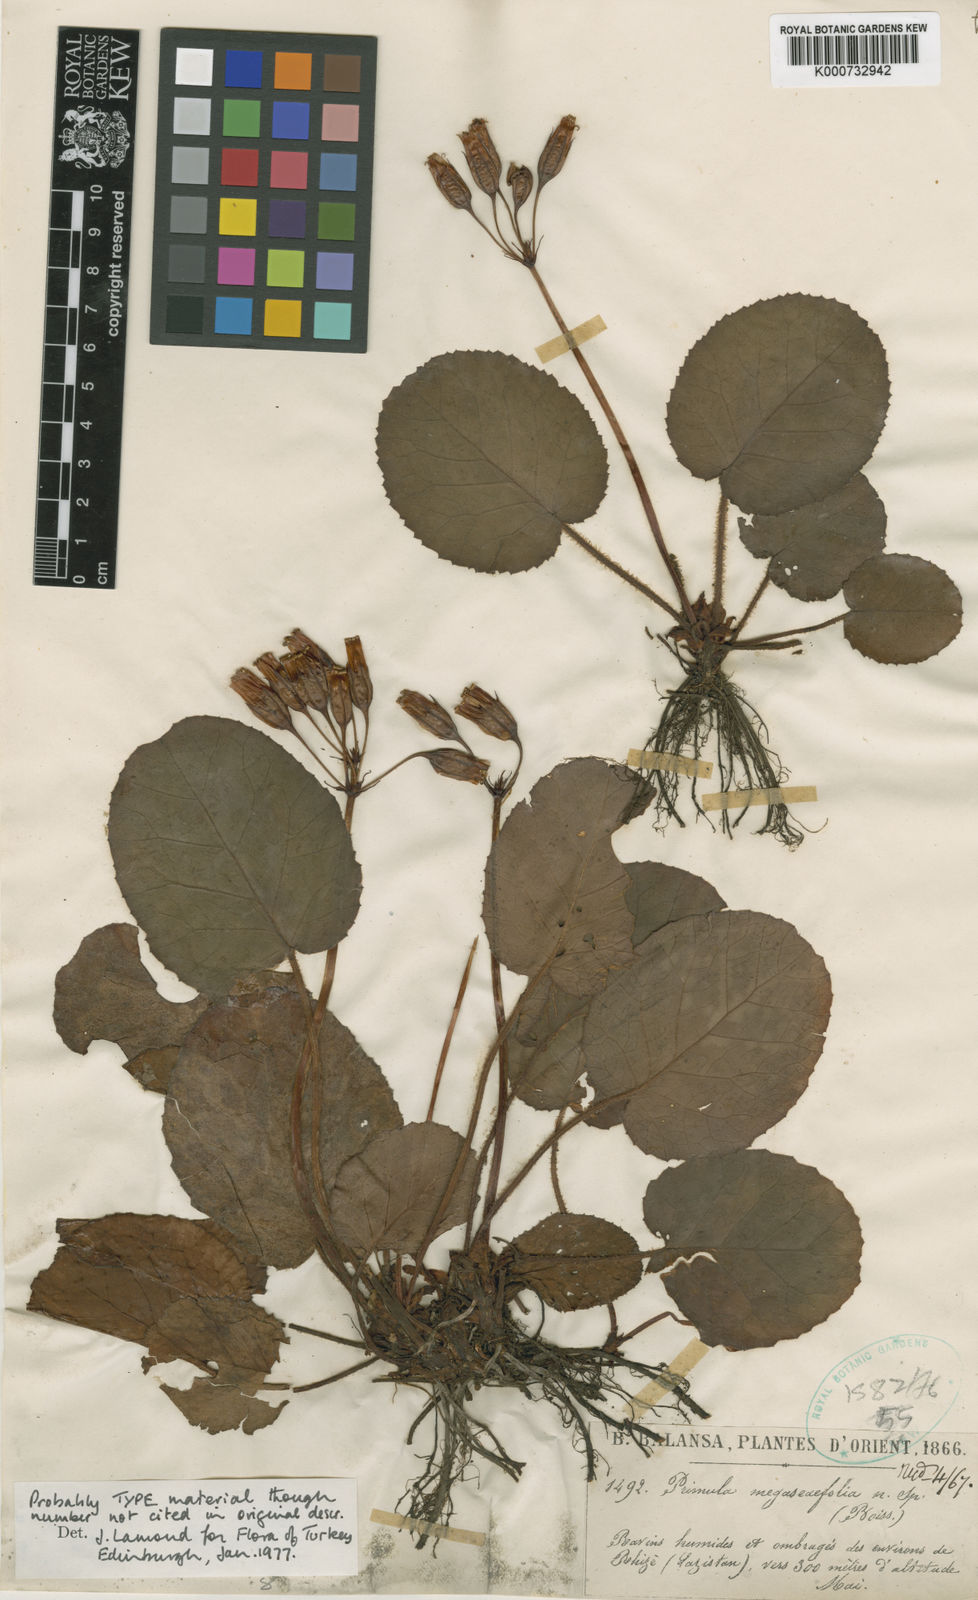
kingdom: Plantae
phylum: Tracheophyta
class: Magnoliopsida
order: Ericales
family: Primulaceae
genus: Primula
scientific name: Primula megaseifolia
